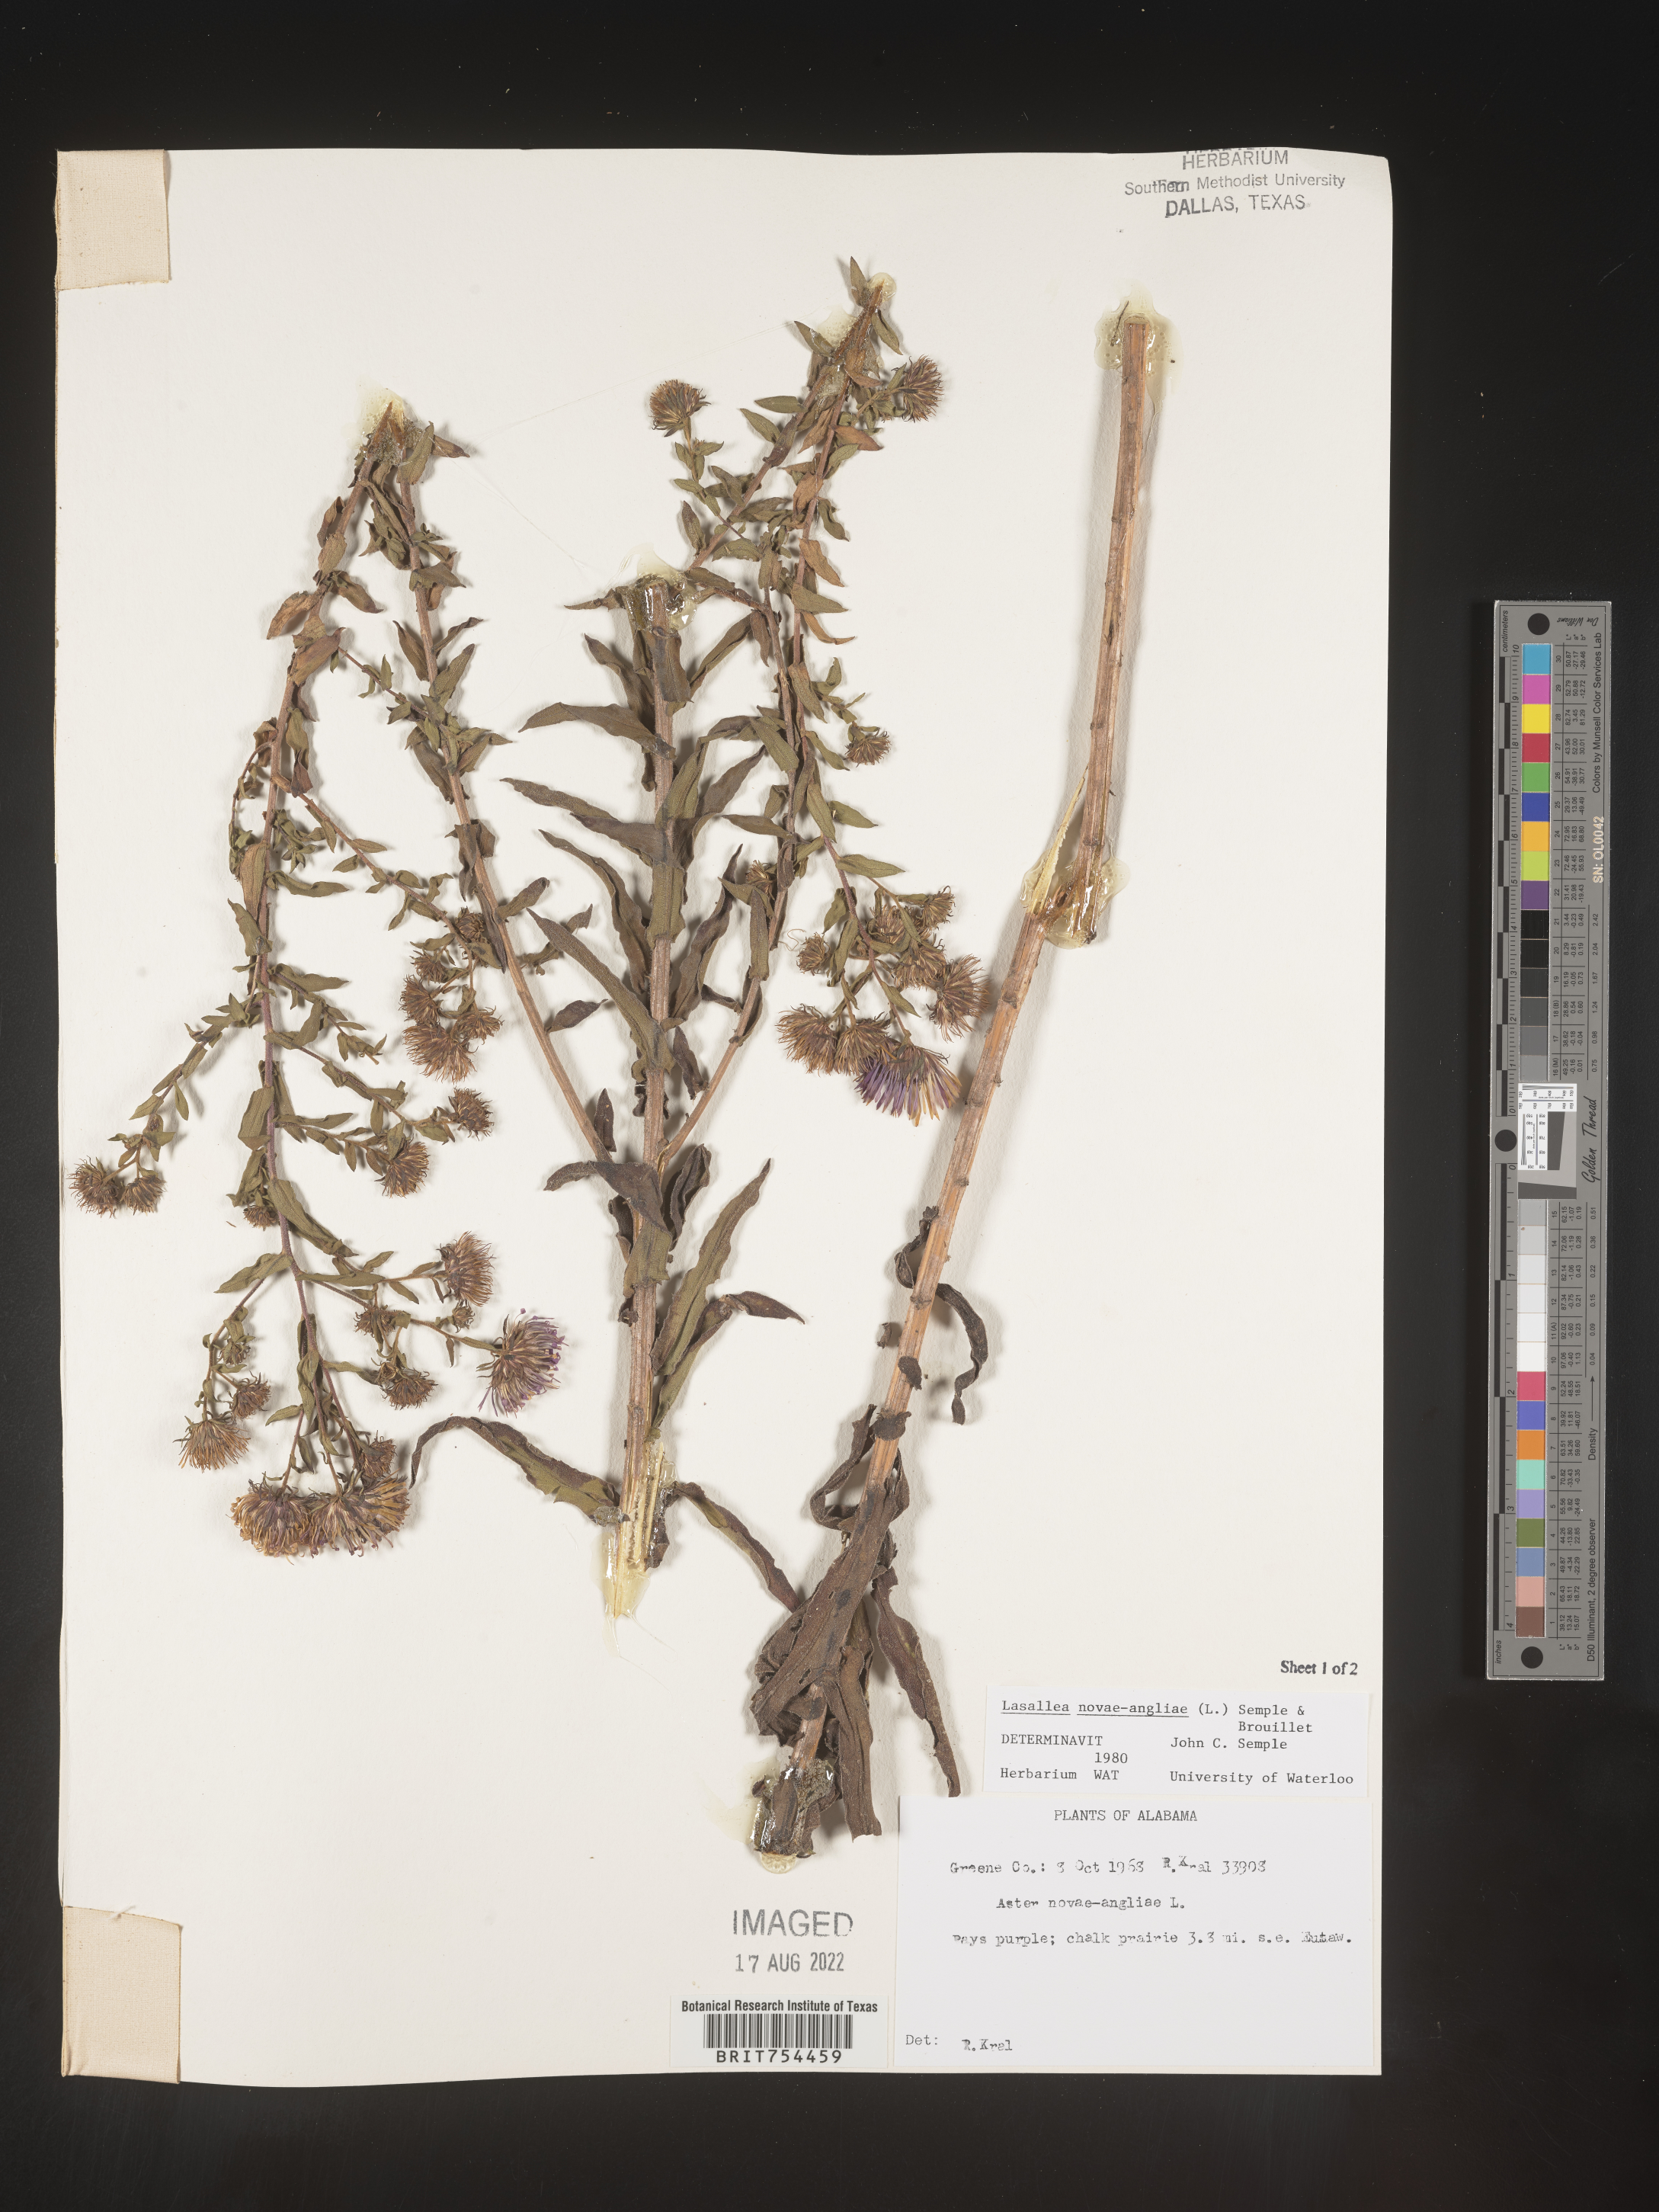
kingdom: Plantae
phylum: Tracheophyta
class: Magnoliopsida
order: Asterales
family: Asteraceae
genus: Symphyotrichum
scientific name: Symphyotrichum novae-angliae
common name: Michaelmas daisy
